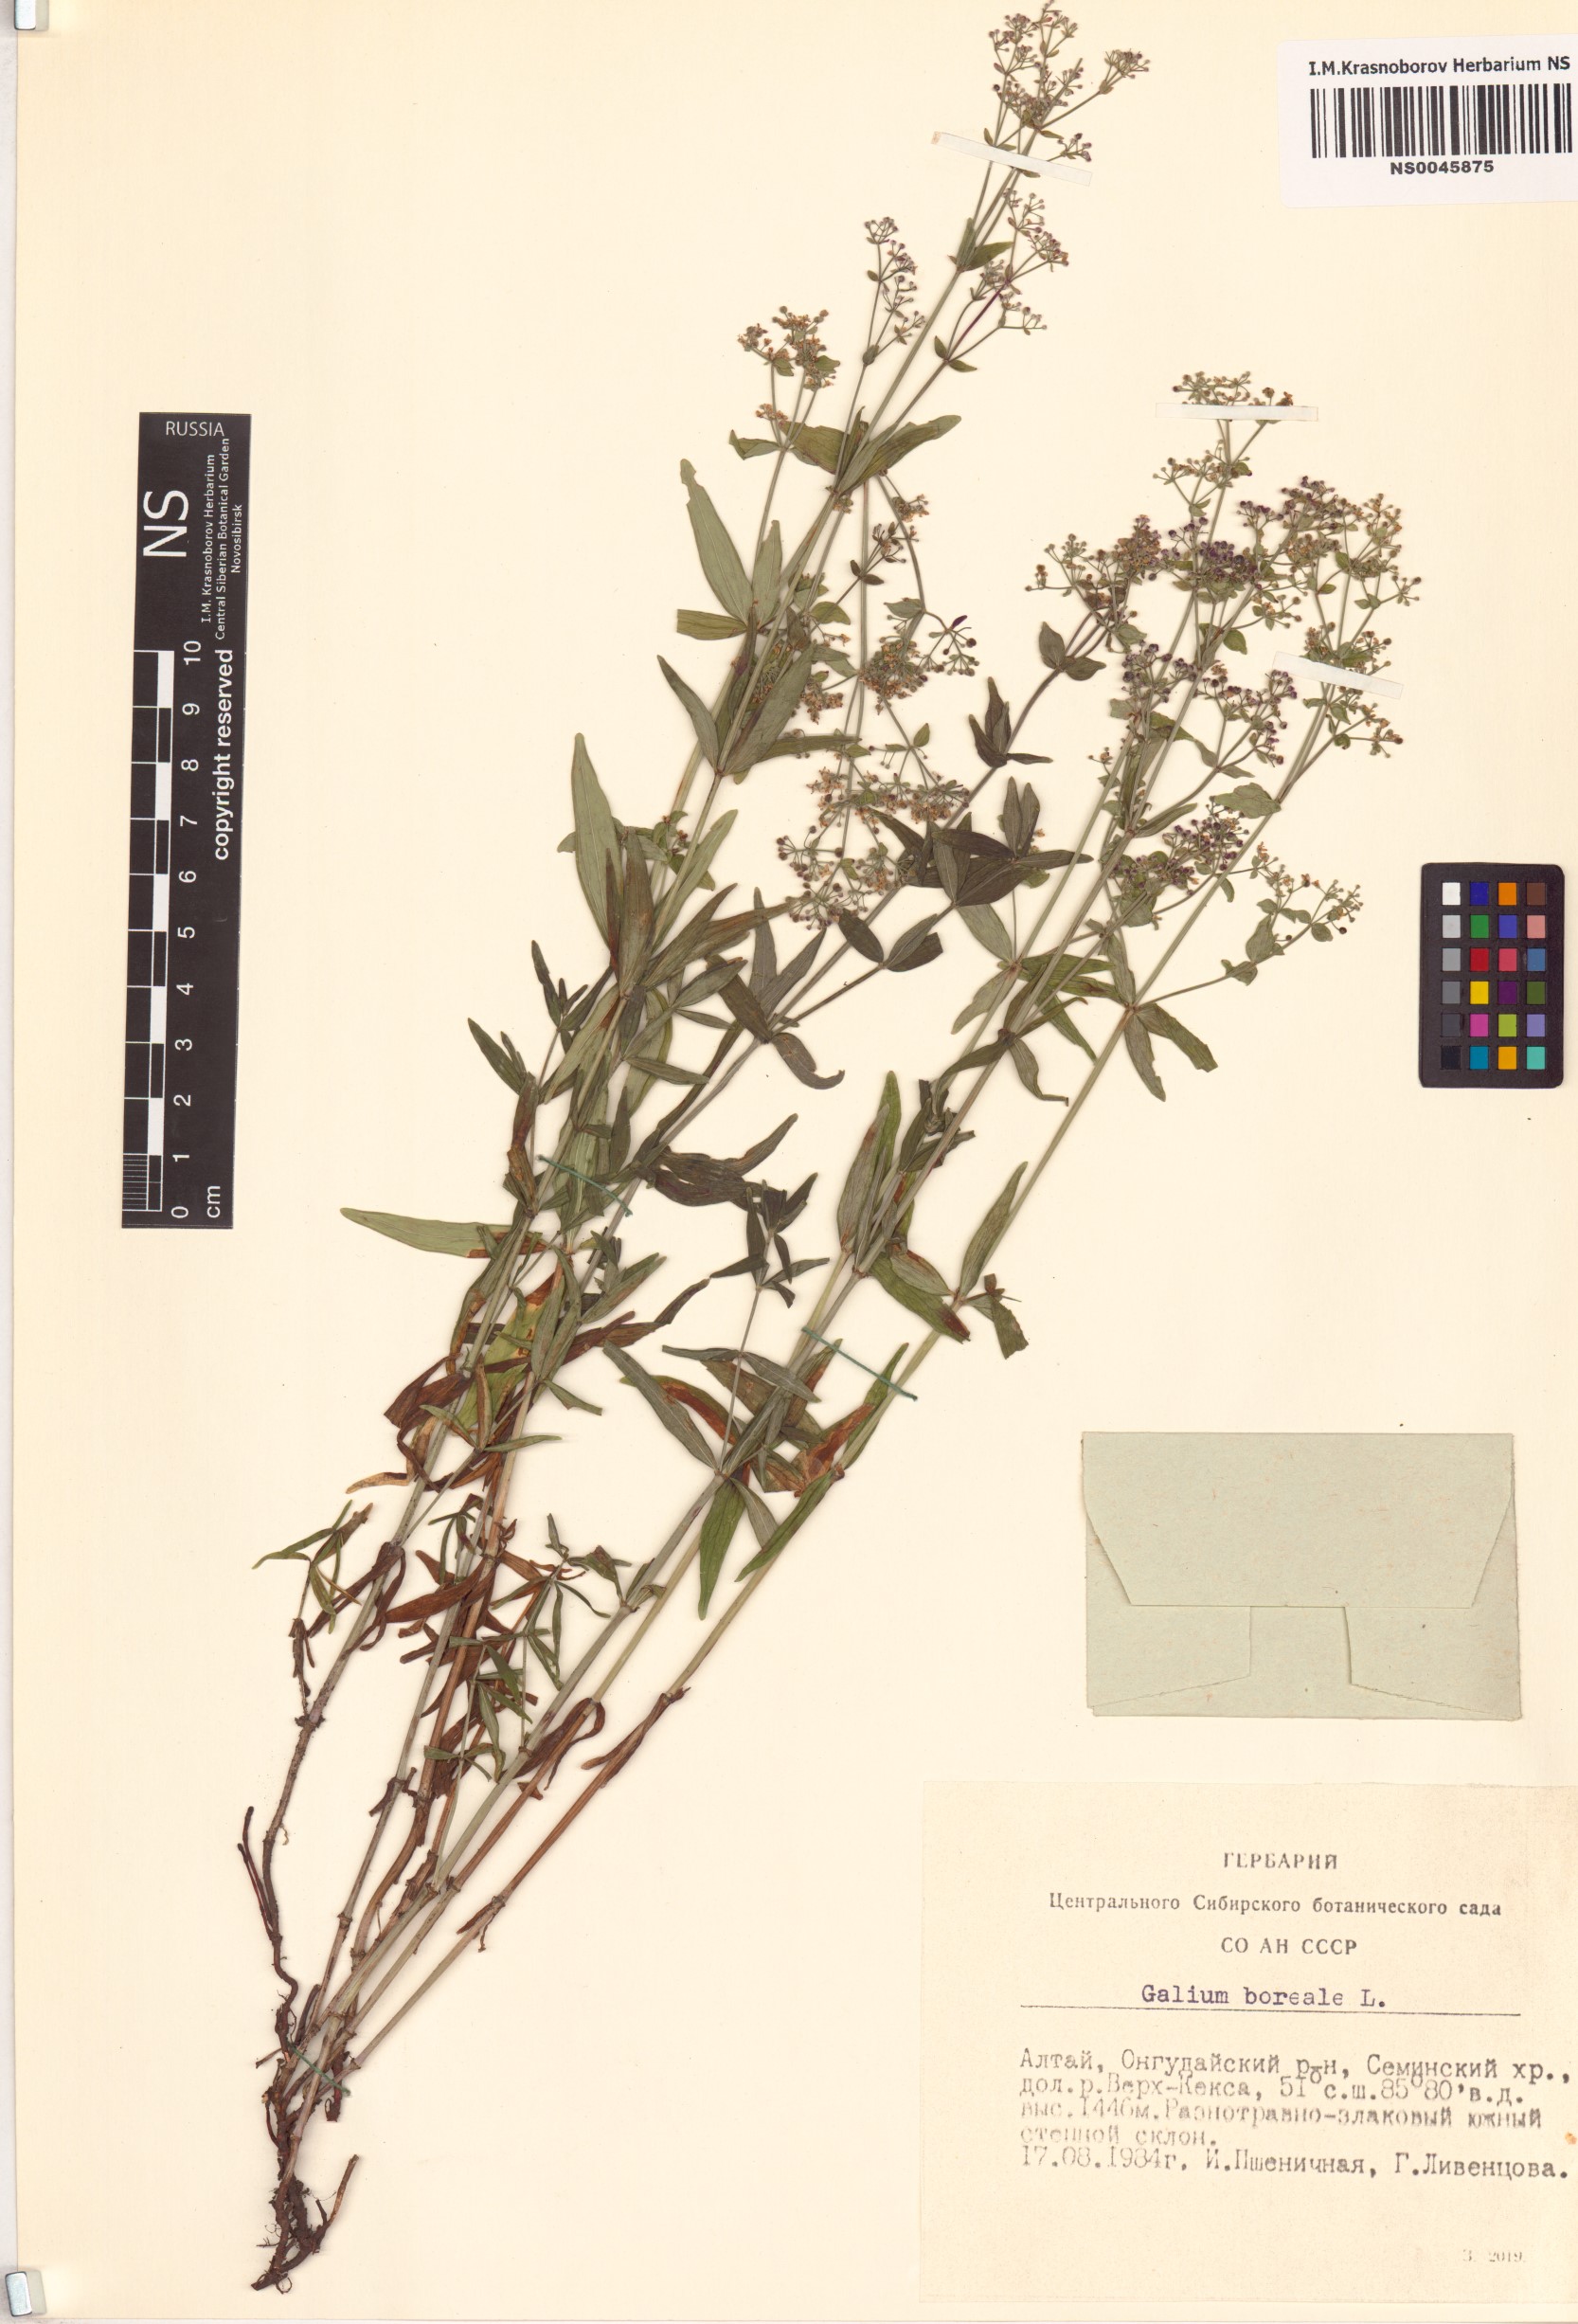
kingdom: Plantae
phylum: Tracheophyta
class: Magnoliopsida
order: Gentianales
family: Rubiaceae
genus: Galium
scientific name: Galium boreale
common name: Northern bedstraw
